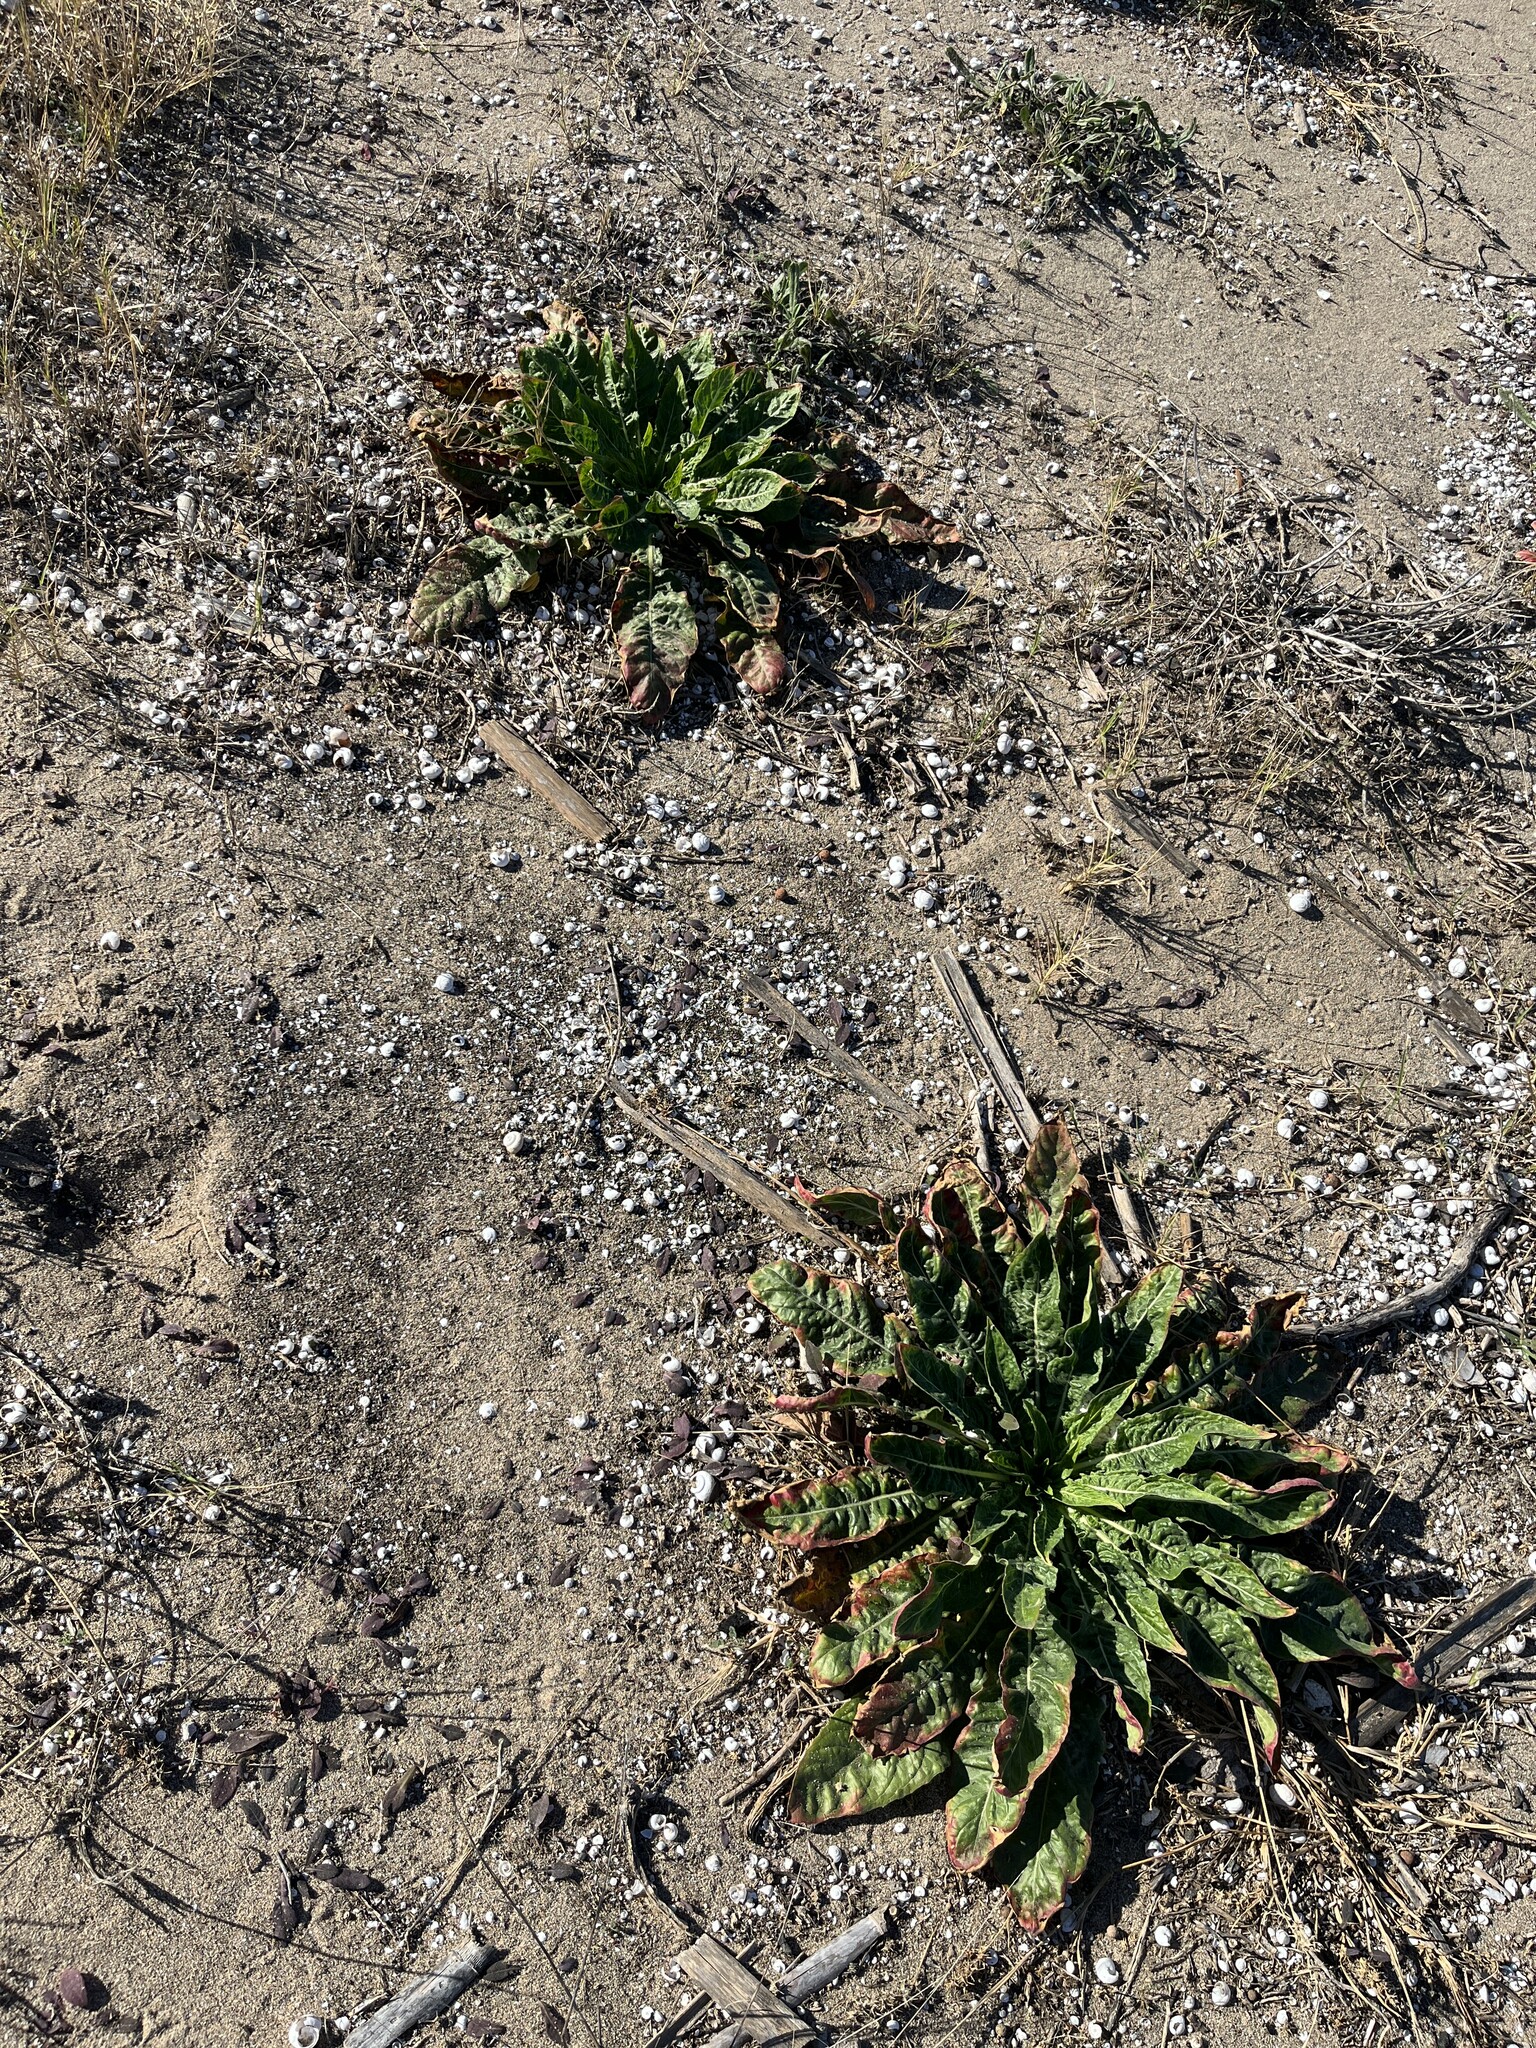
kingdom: Plantae
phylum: Tracheophyta
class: Magnoliopsida
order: Myrtales
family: Onagraceae
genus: Oenothera
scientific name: Oenothera glazioviana
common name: Large-flowered evening-primrose
